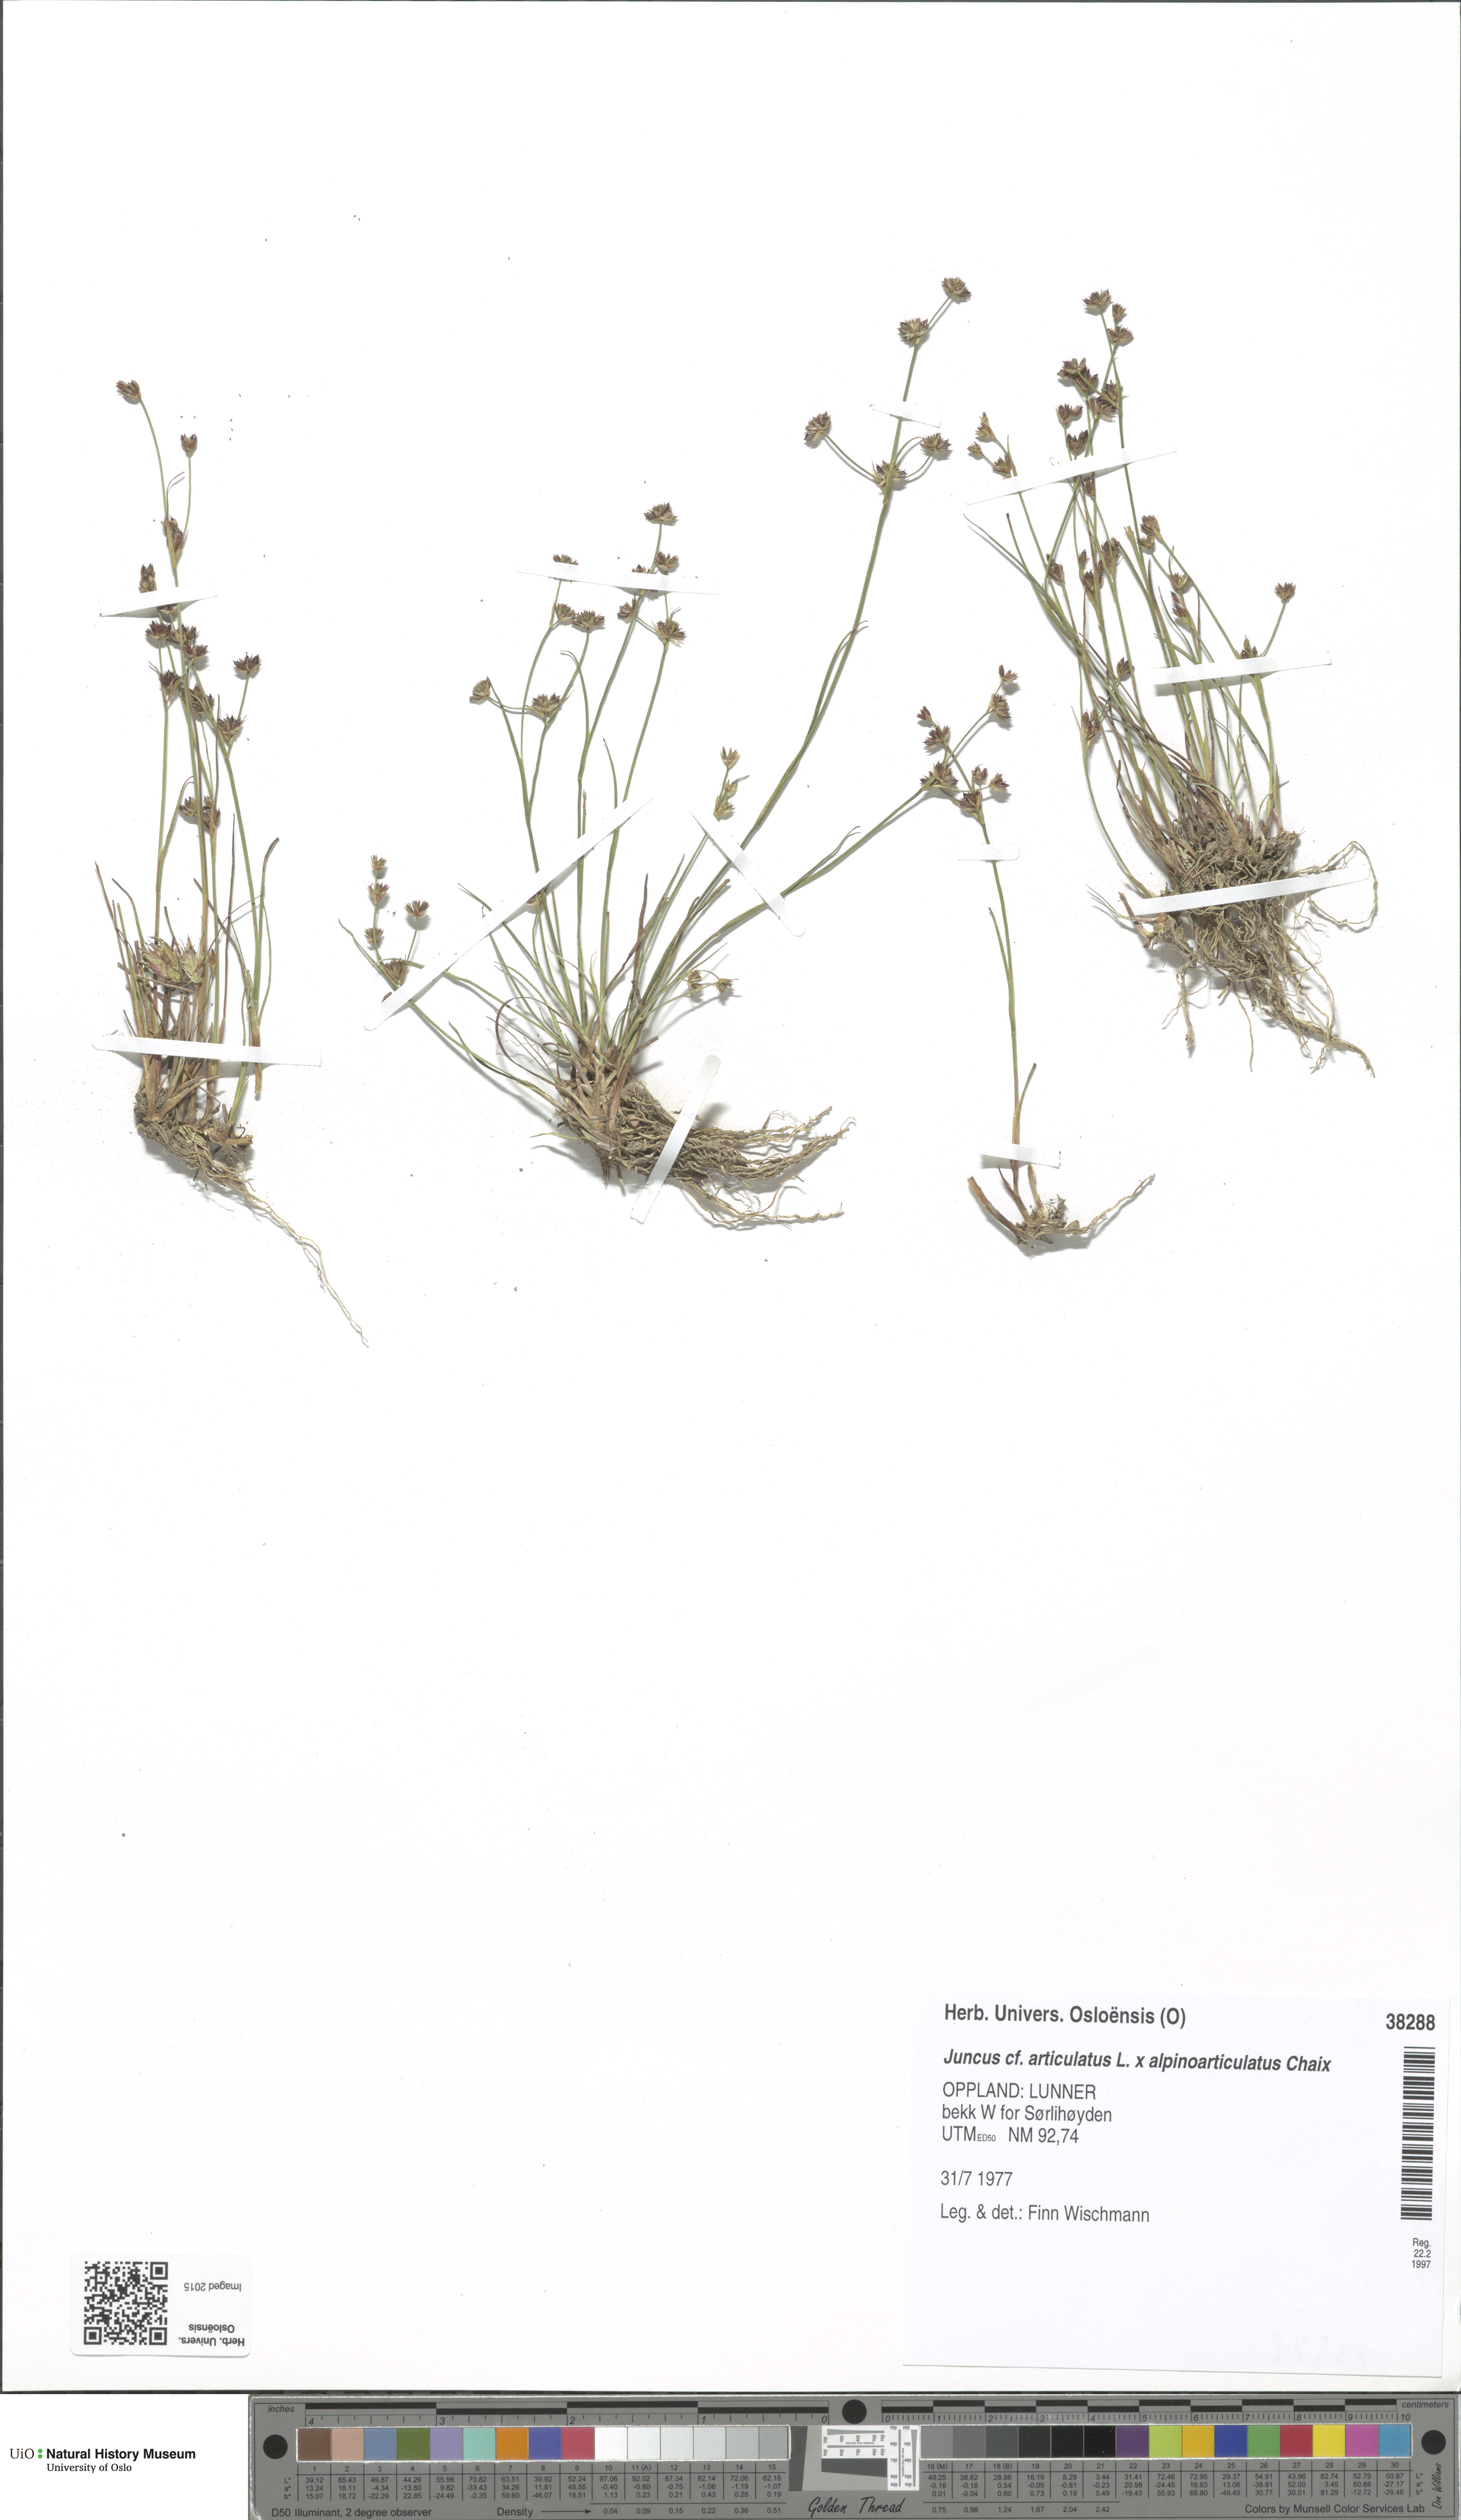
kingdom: Plantae
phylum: Tracheophyta
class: Liliopsida
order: Poales
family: Juncaceae
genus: Juncus
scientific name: Juncus
